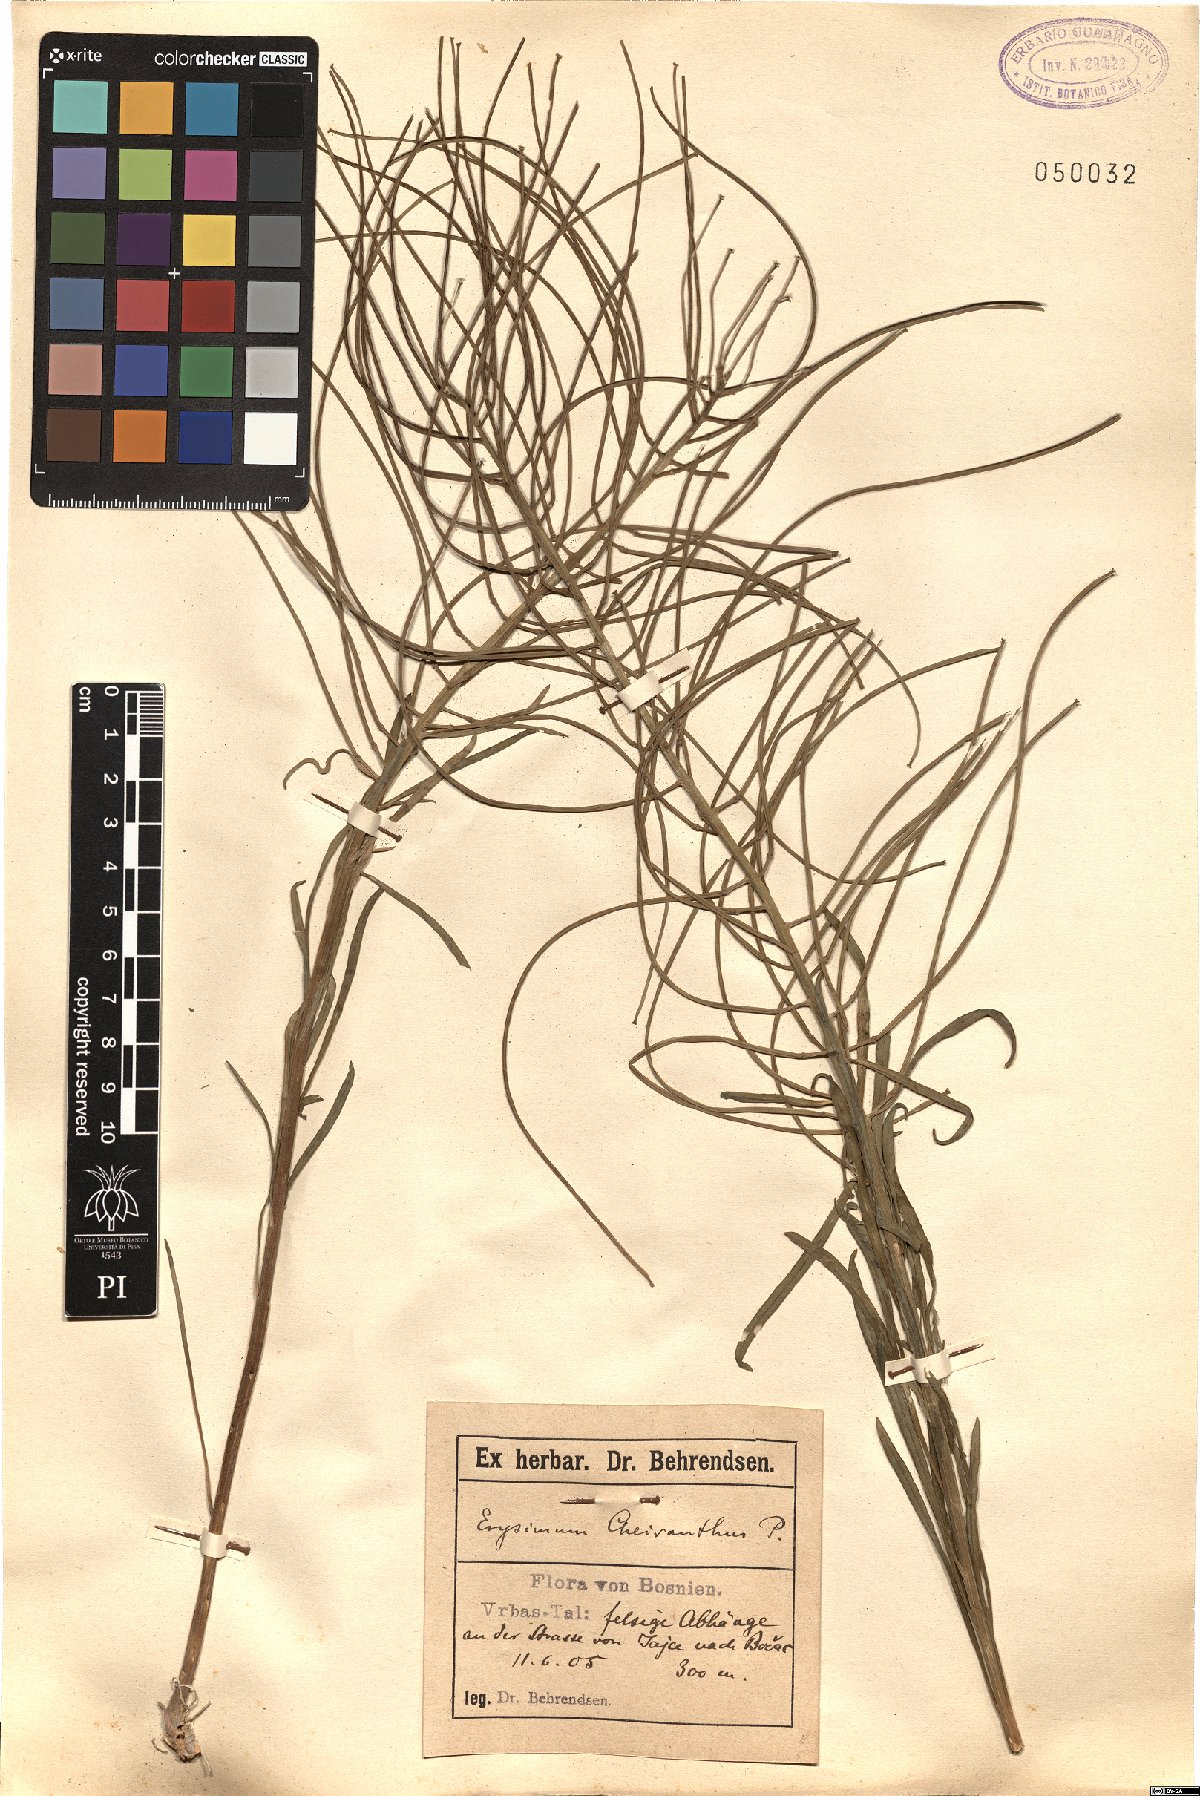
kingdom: Plantae
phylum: Tracheophyta
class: Magnoliopsida
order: Brassicales
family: Brassicaceae
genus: Erysimum
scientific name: Erysimum sylvestre
